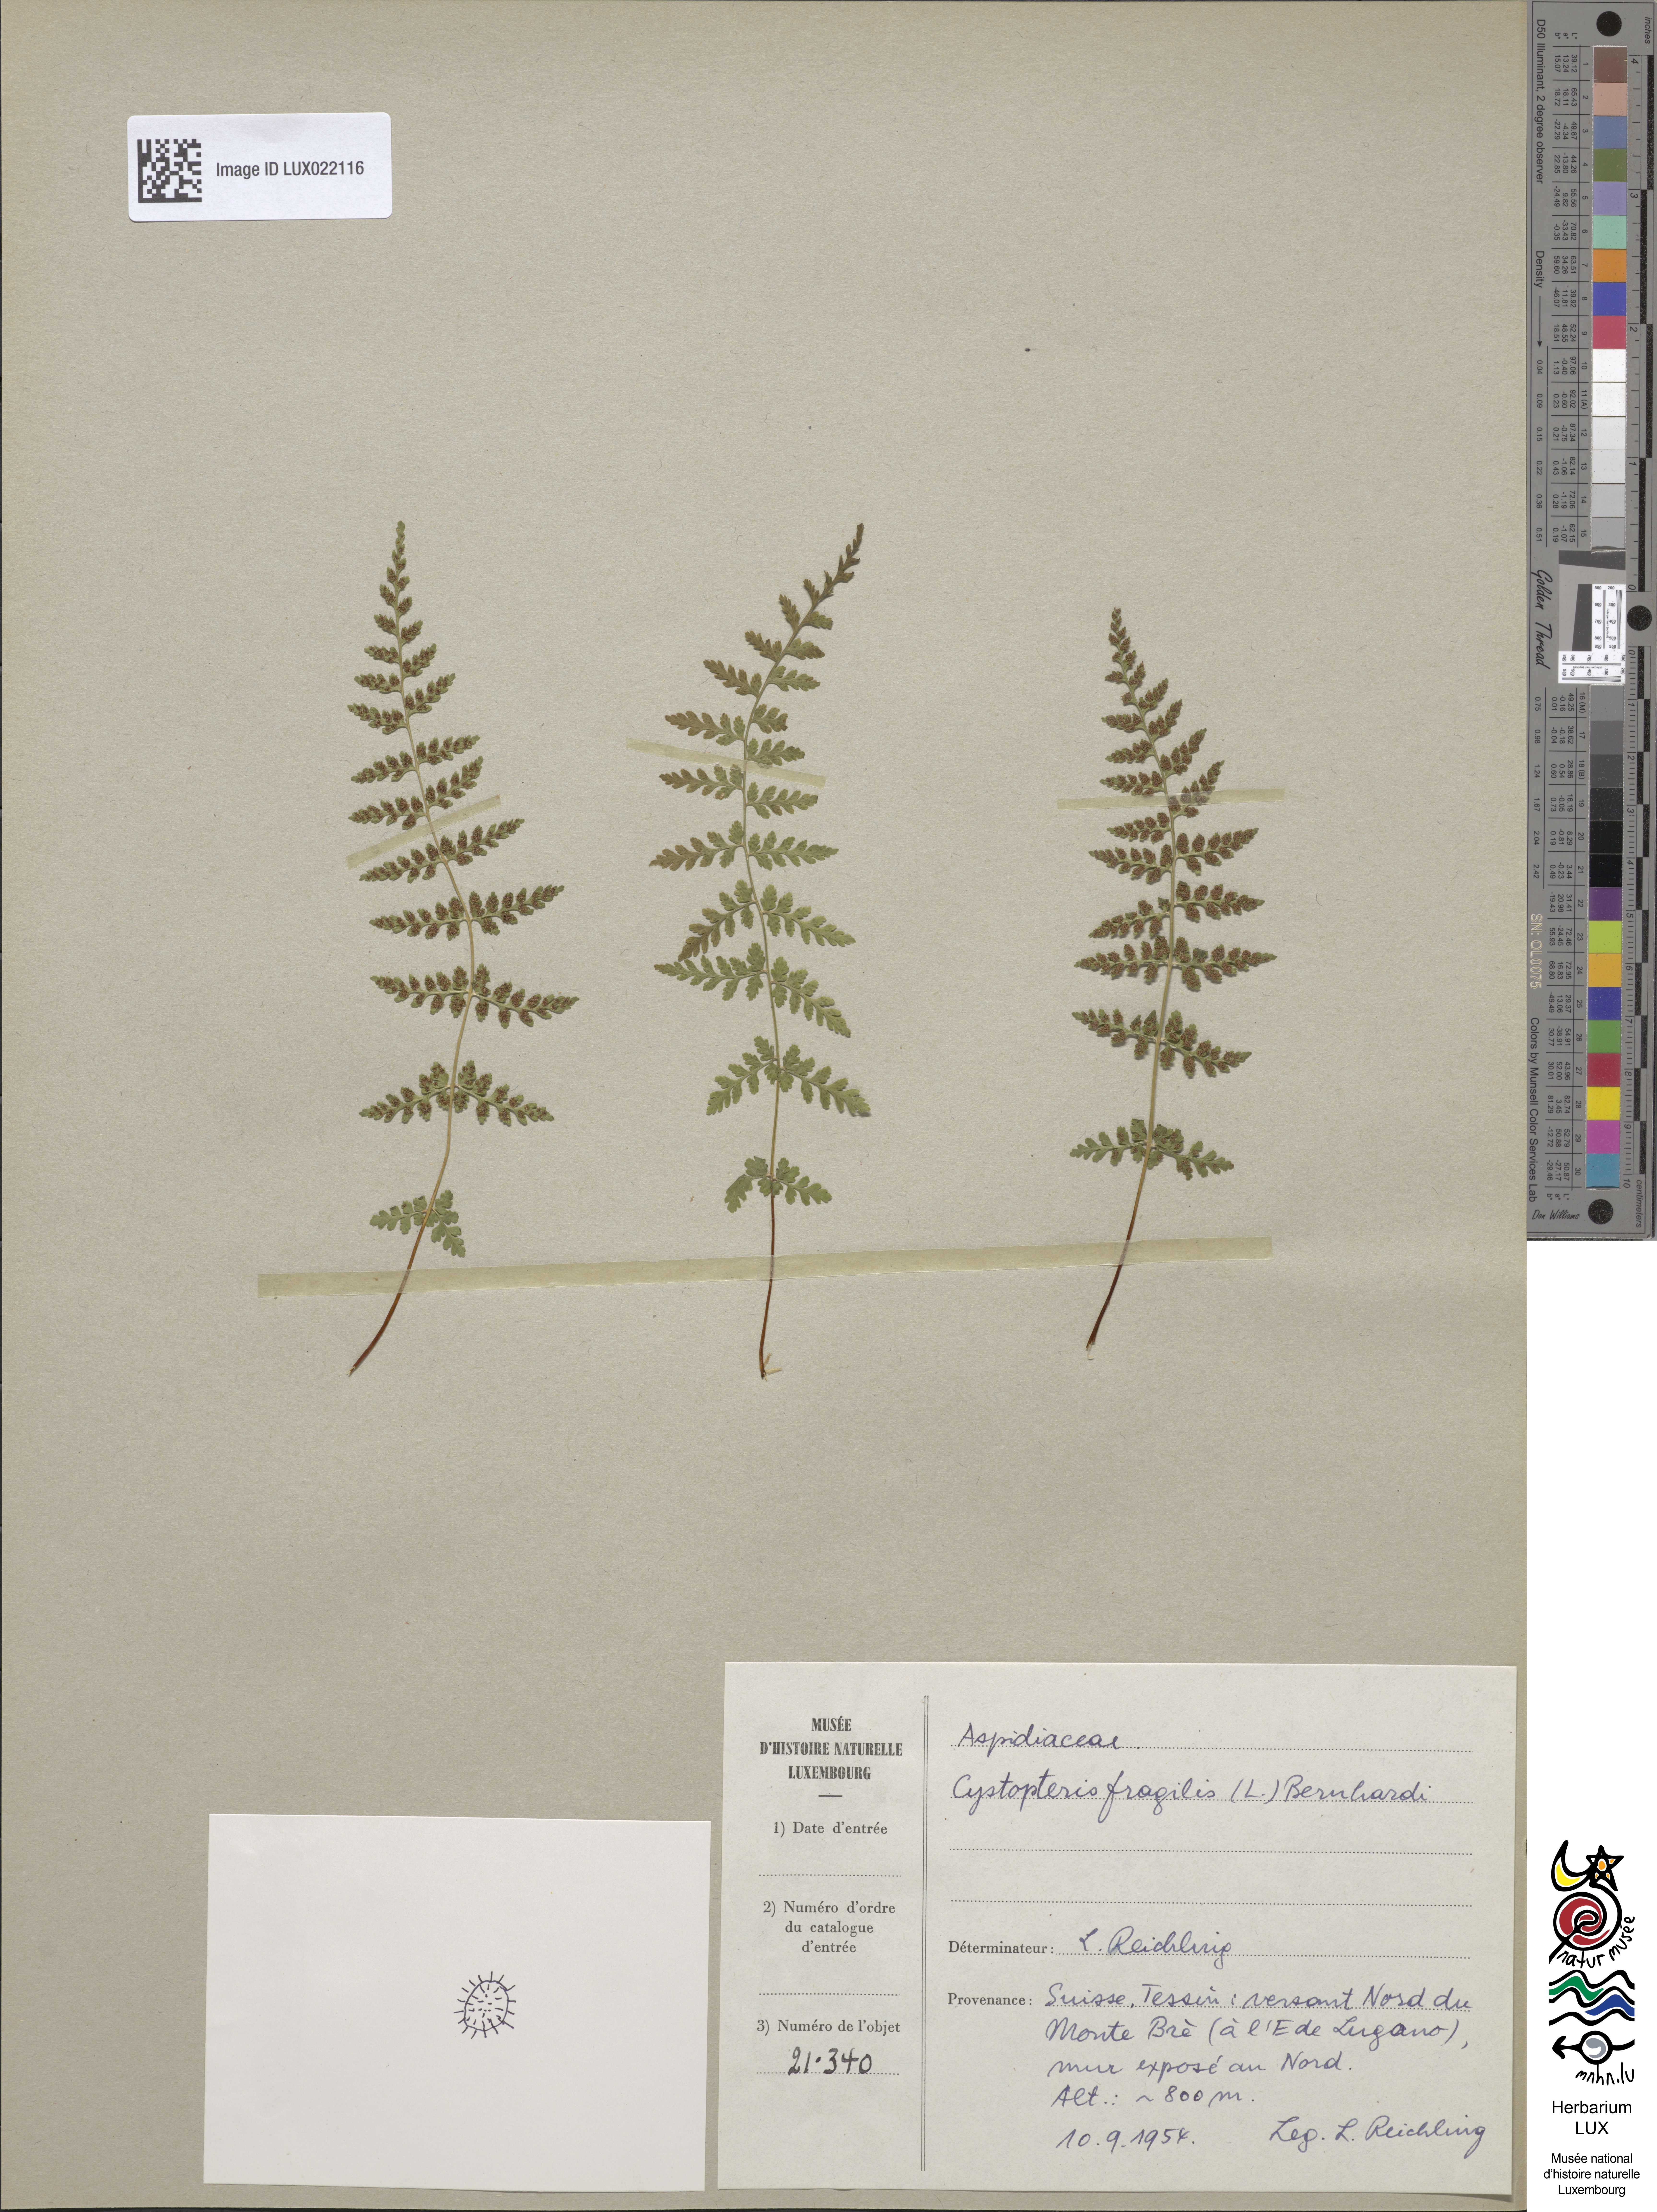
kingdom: Plantae
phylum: Tracheophyta
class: Polypodiopsida
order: Polypodiales
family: Cystopteridaceae
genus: Cystopteris
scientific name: Cystopteris fragilis
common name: Brittle bladder fern
